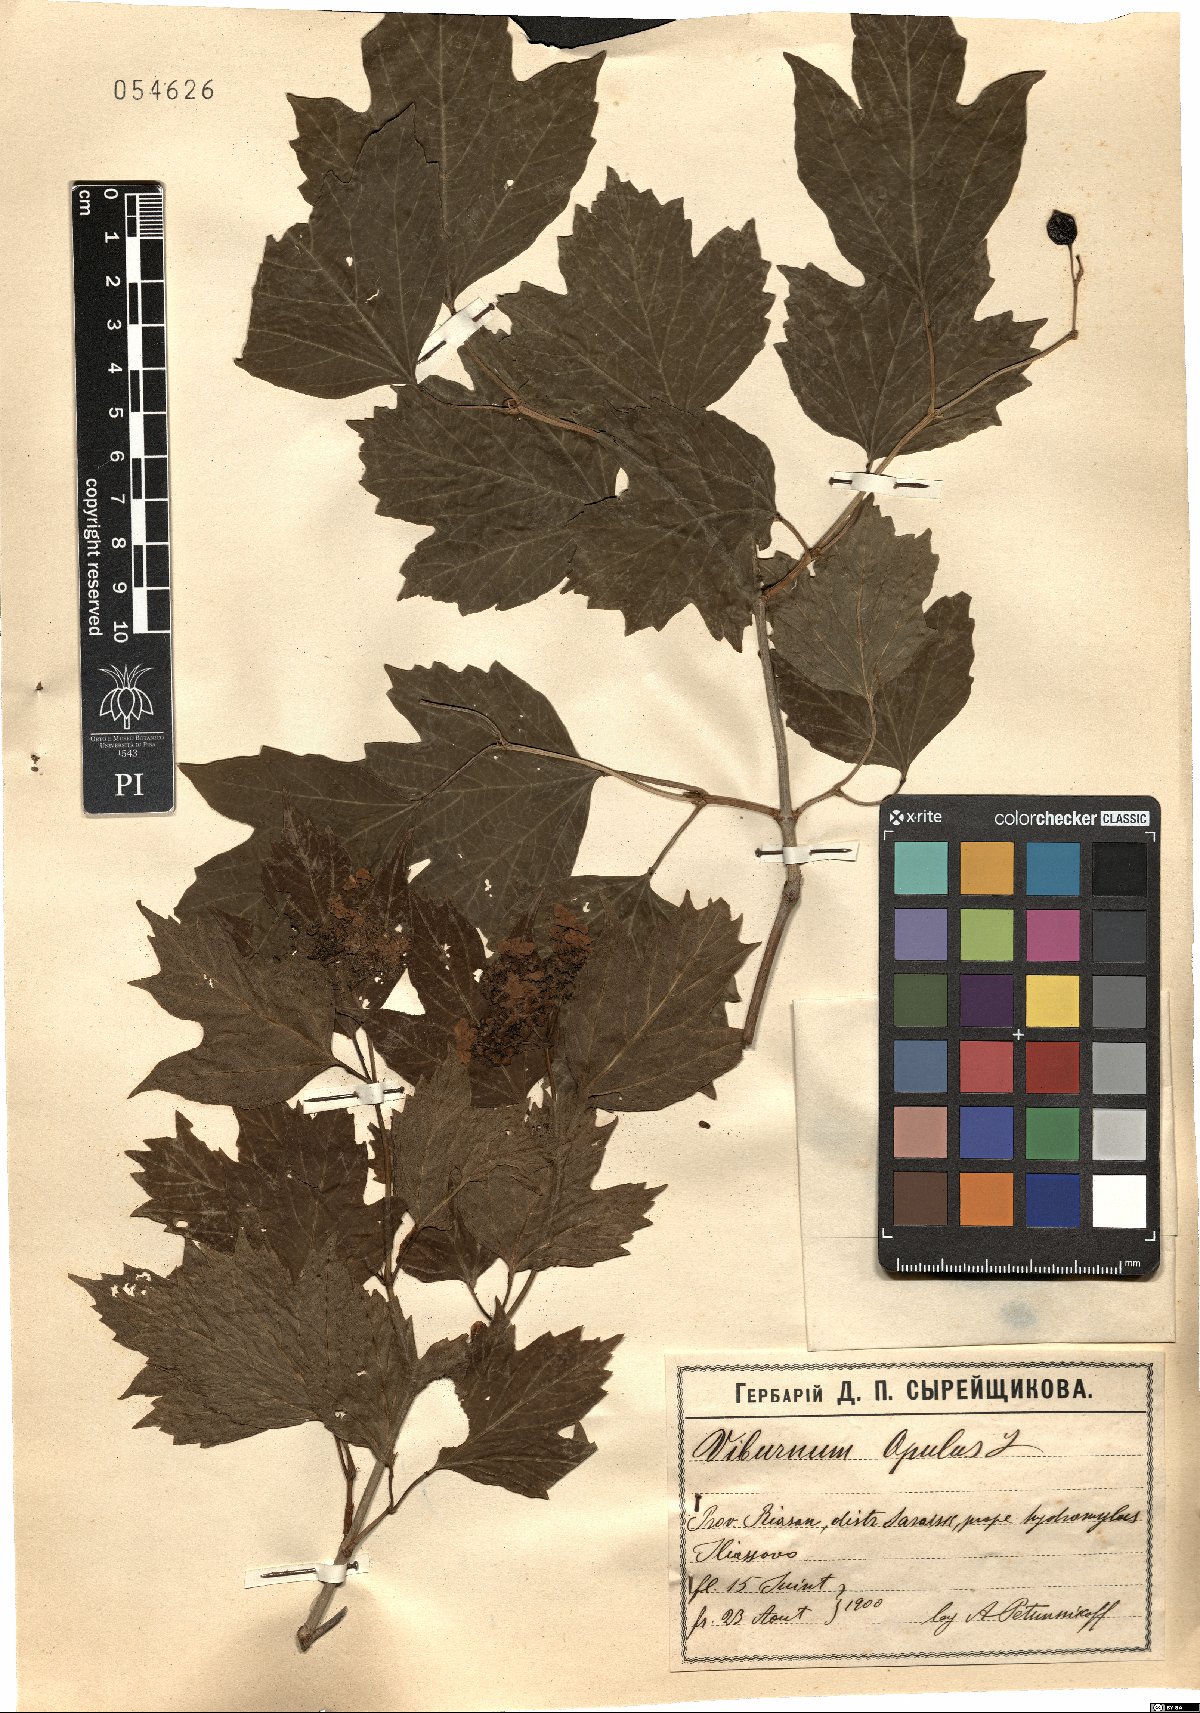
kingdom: Plantae
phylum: Tracheophyta
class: Magnoliopsida
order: Dipsacales
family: Viburnaceae
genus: Viburnum
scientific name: Viburnum opulus
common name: Guelder-rose
